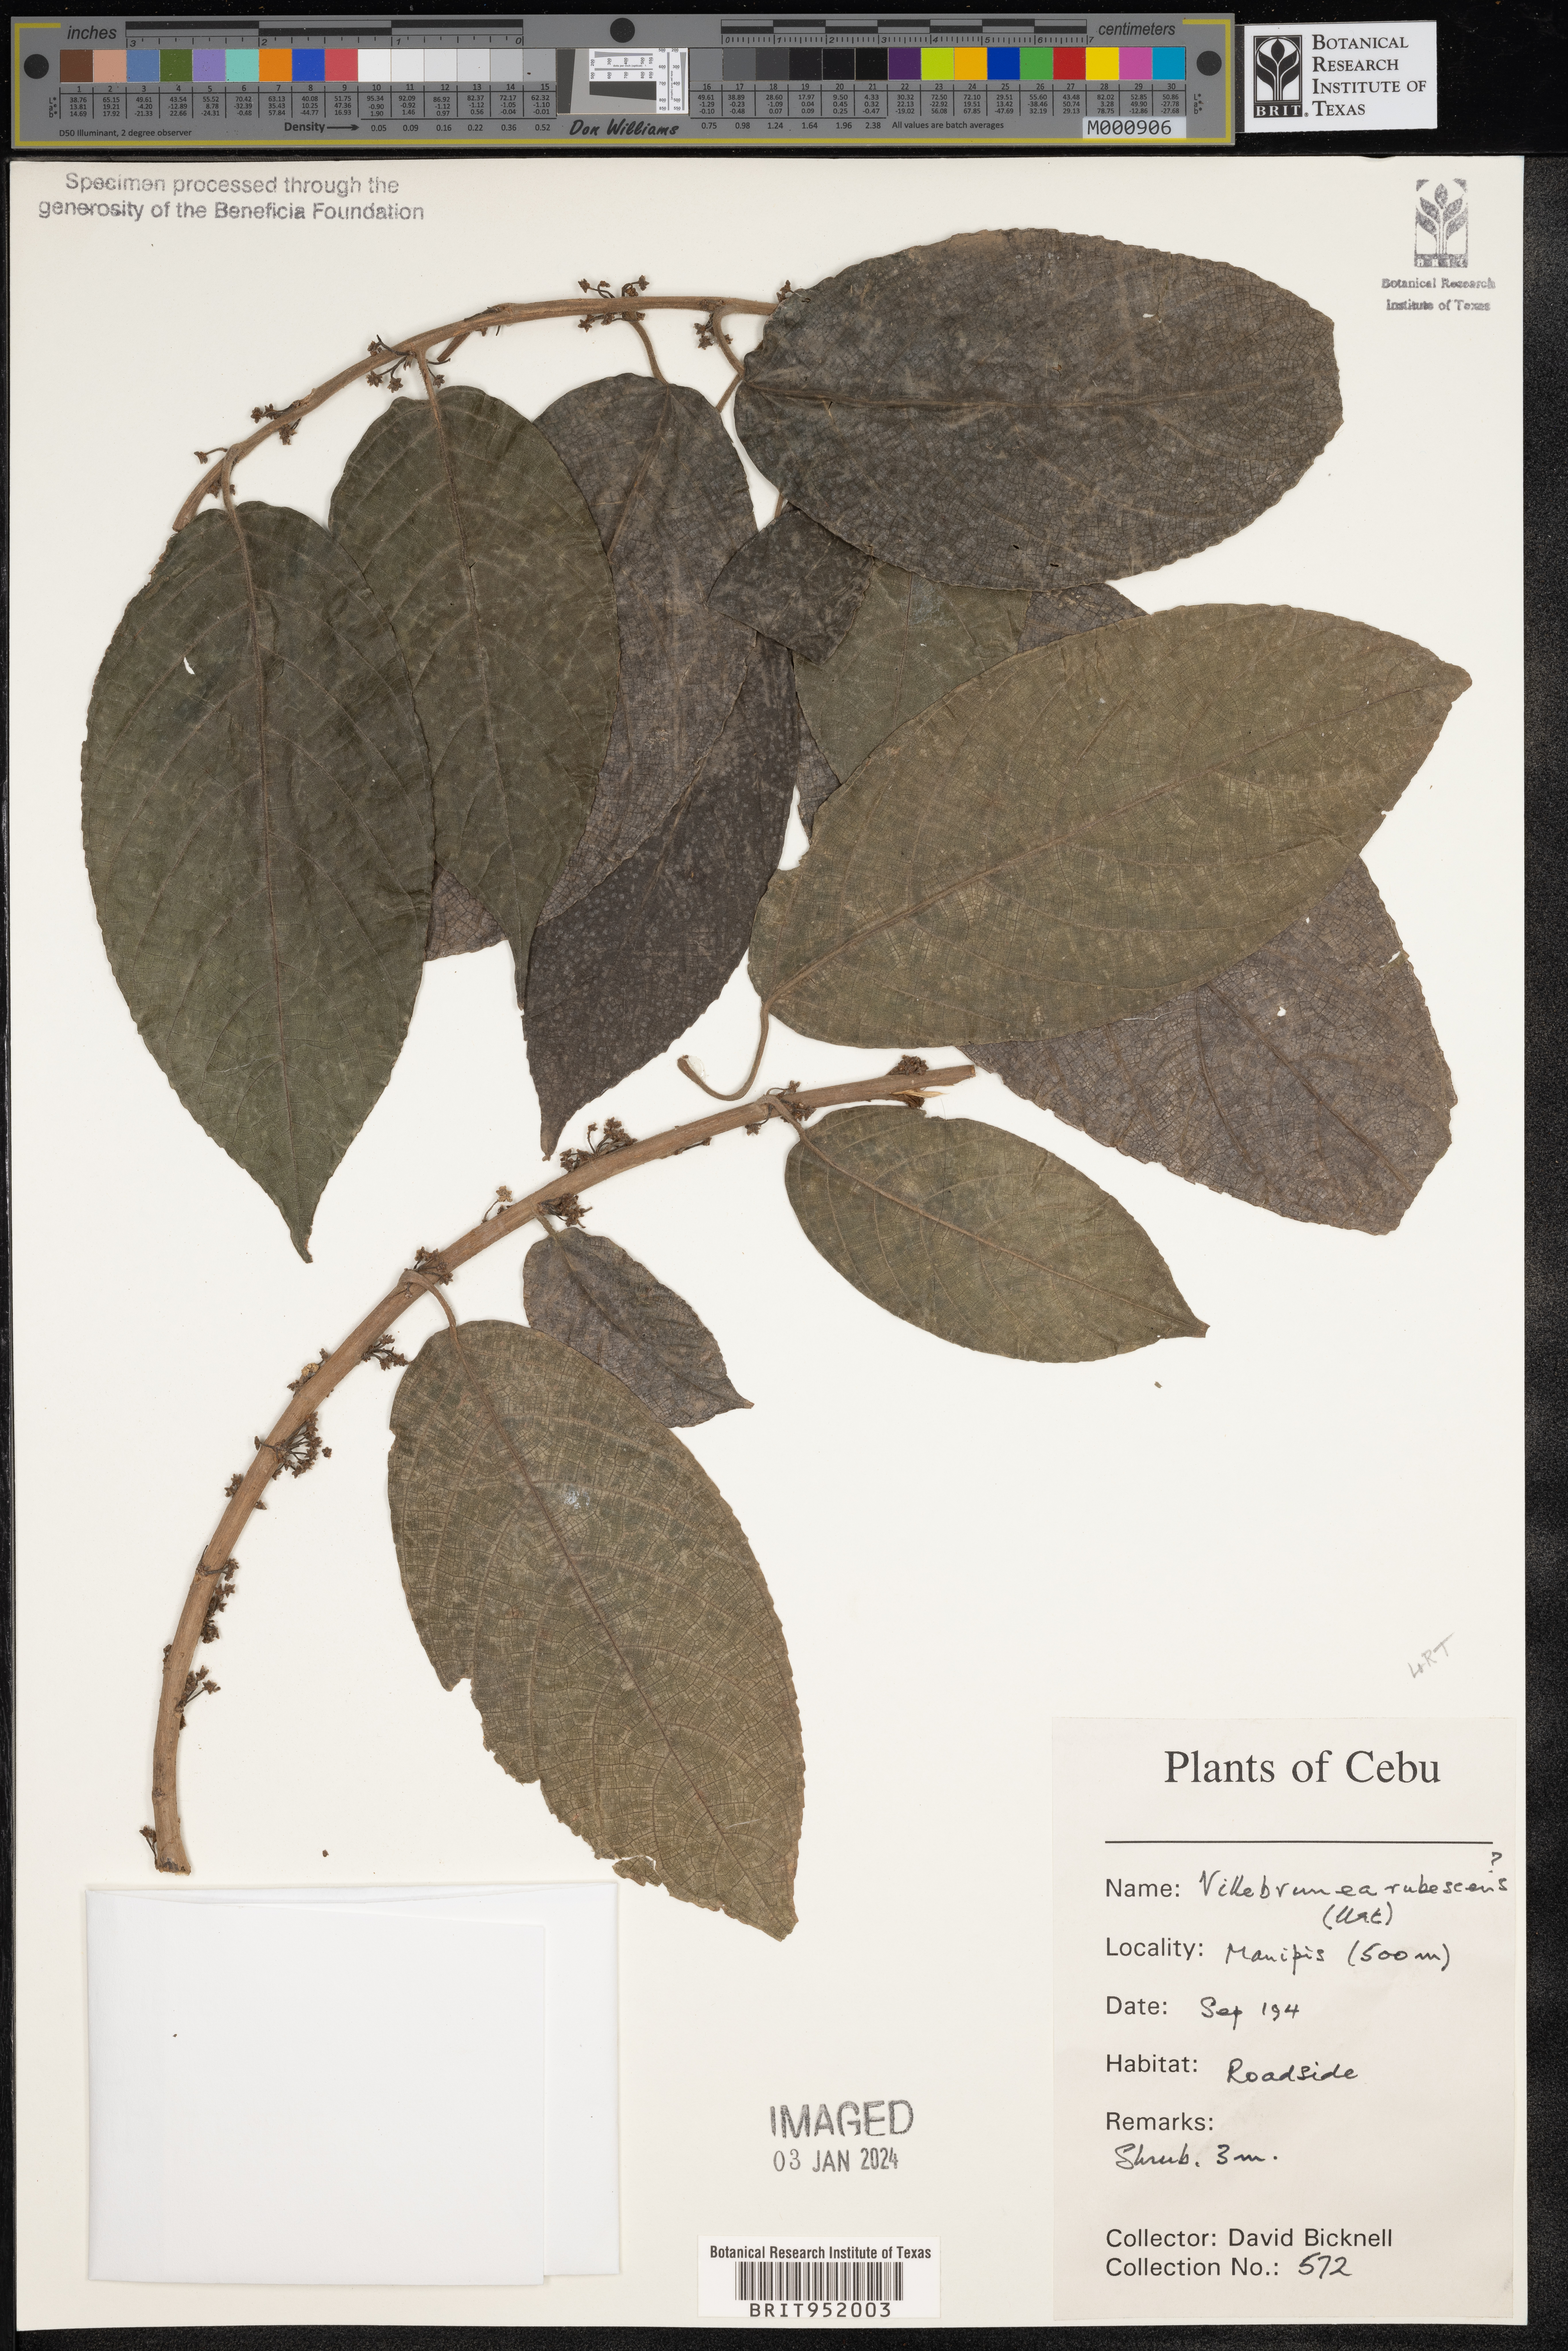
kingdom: Plantae
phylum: Tracheophyta
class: Magnoliopsida
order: Rosales
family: Urticaceae
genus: Villebrunea
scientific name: Villebrunea
